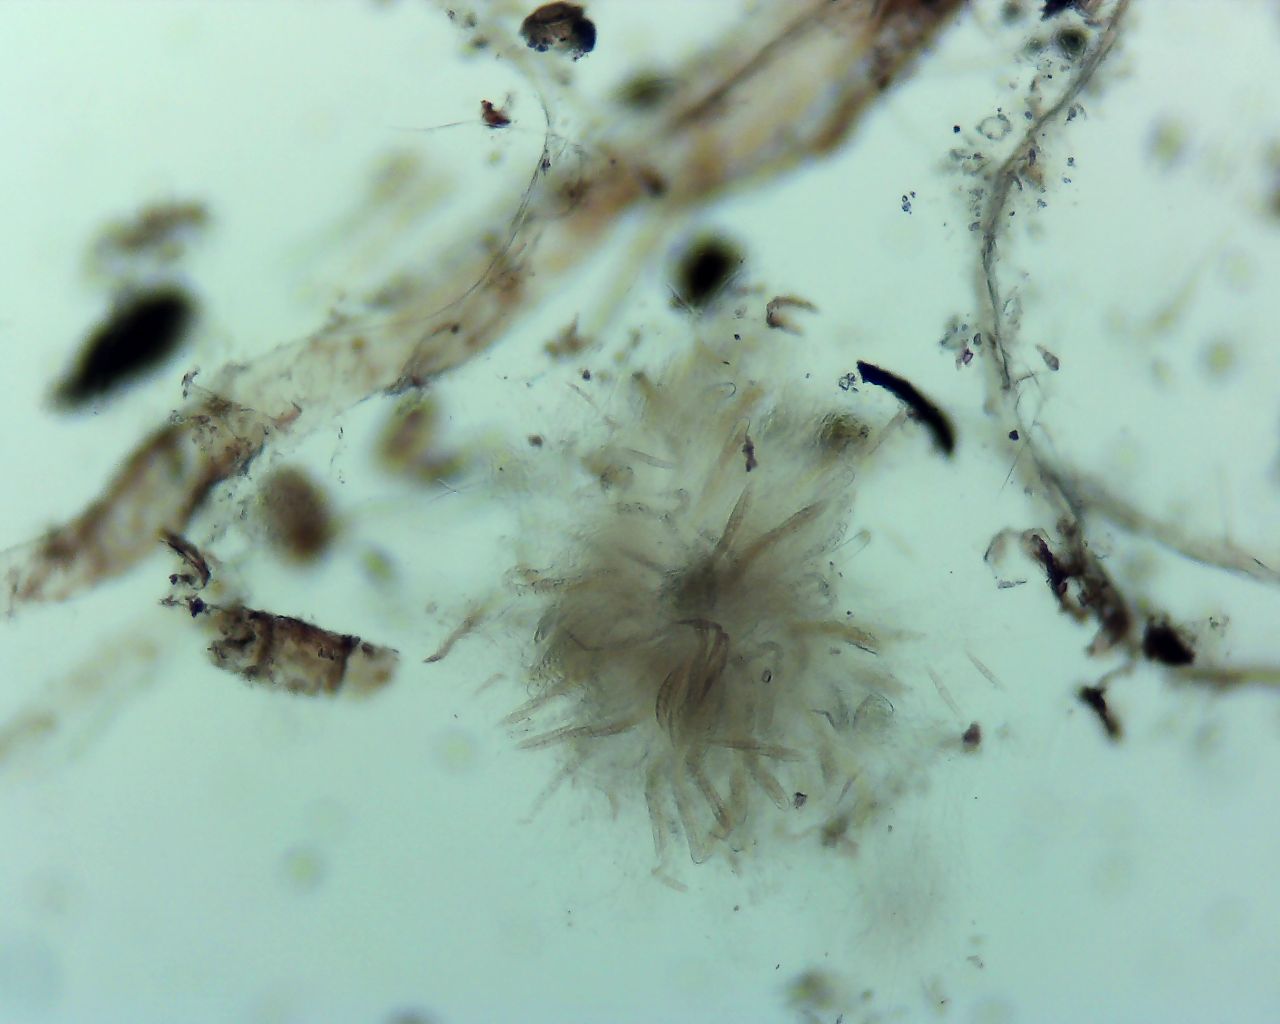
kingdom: Fungi
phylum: Ascomycota
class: Dothideomycetes
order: Pleosporales
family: Phaeosphaeriaceae
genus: Phaeosphaeria
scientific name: Phaeosphaeria sowerbyi
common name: kål-kulkegle
